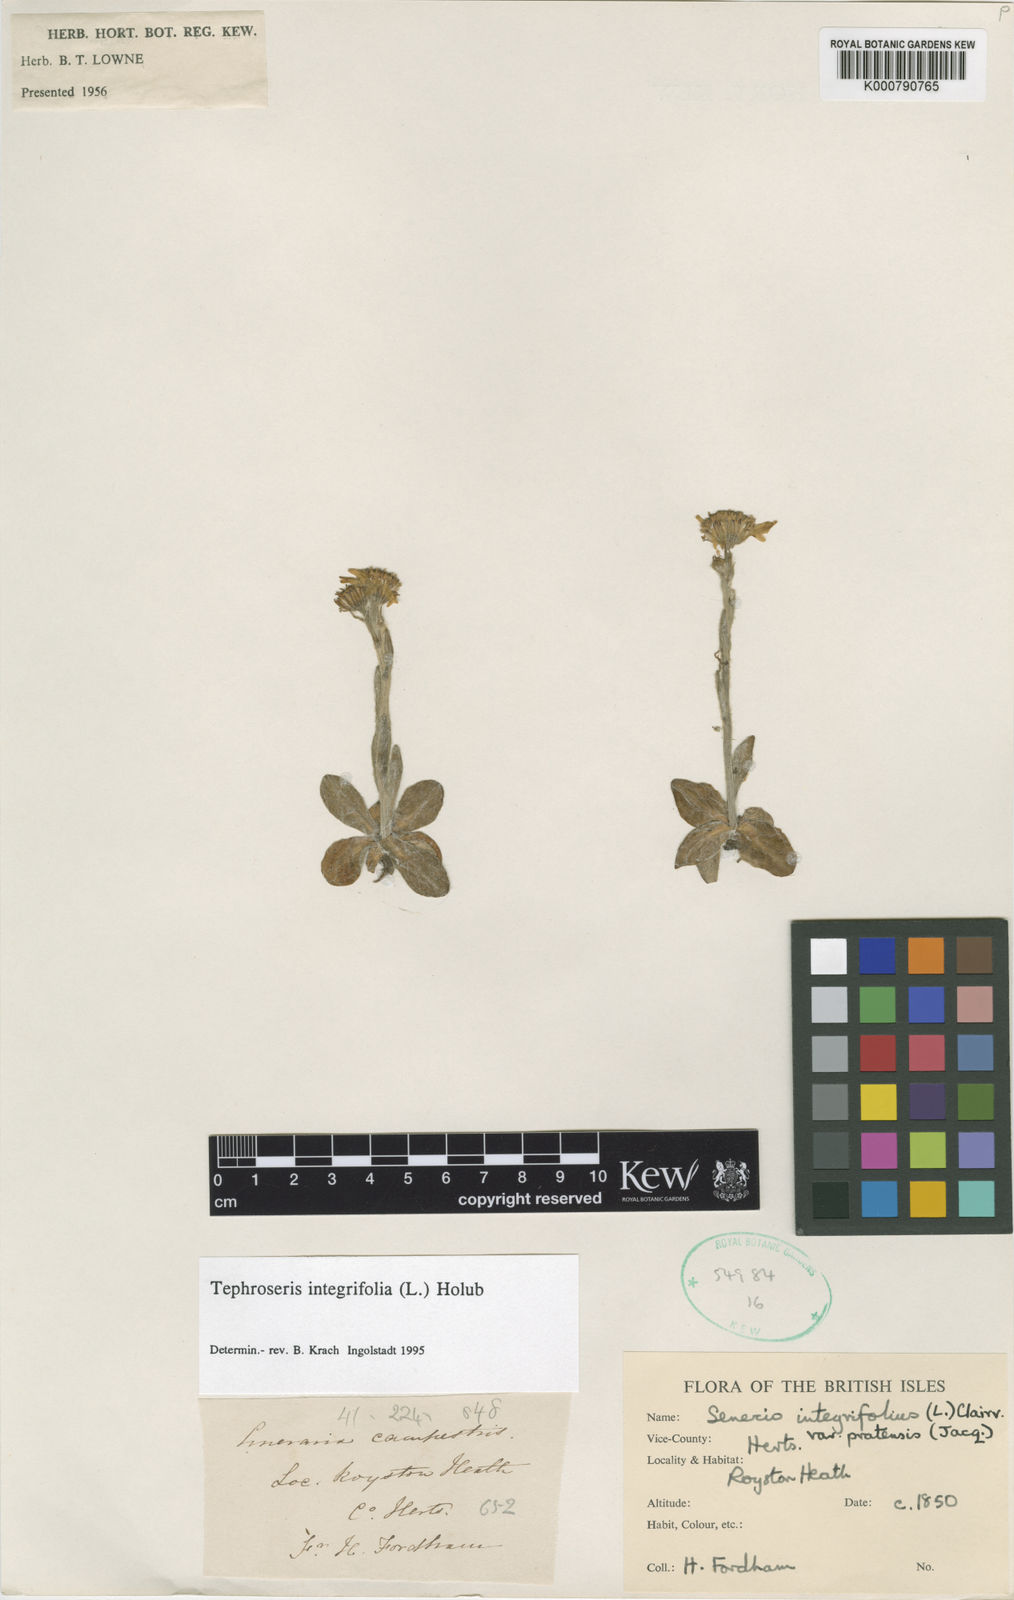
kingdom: Plantae
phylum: Tracheophyta
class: Magnoliopsida
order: Asterales
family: Asteraceae
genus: Tephroseris
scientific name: Tephroseris integrifolia
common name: Field fleawort
